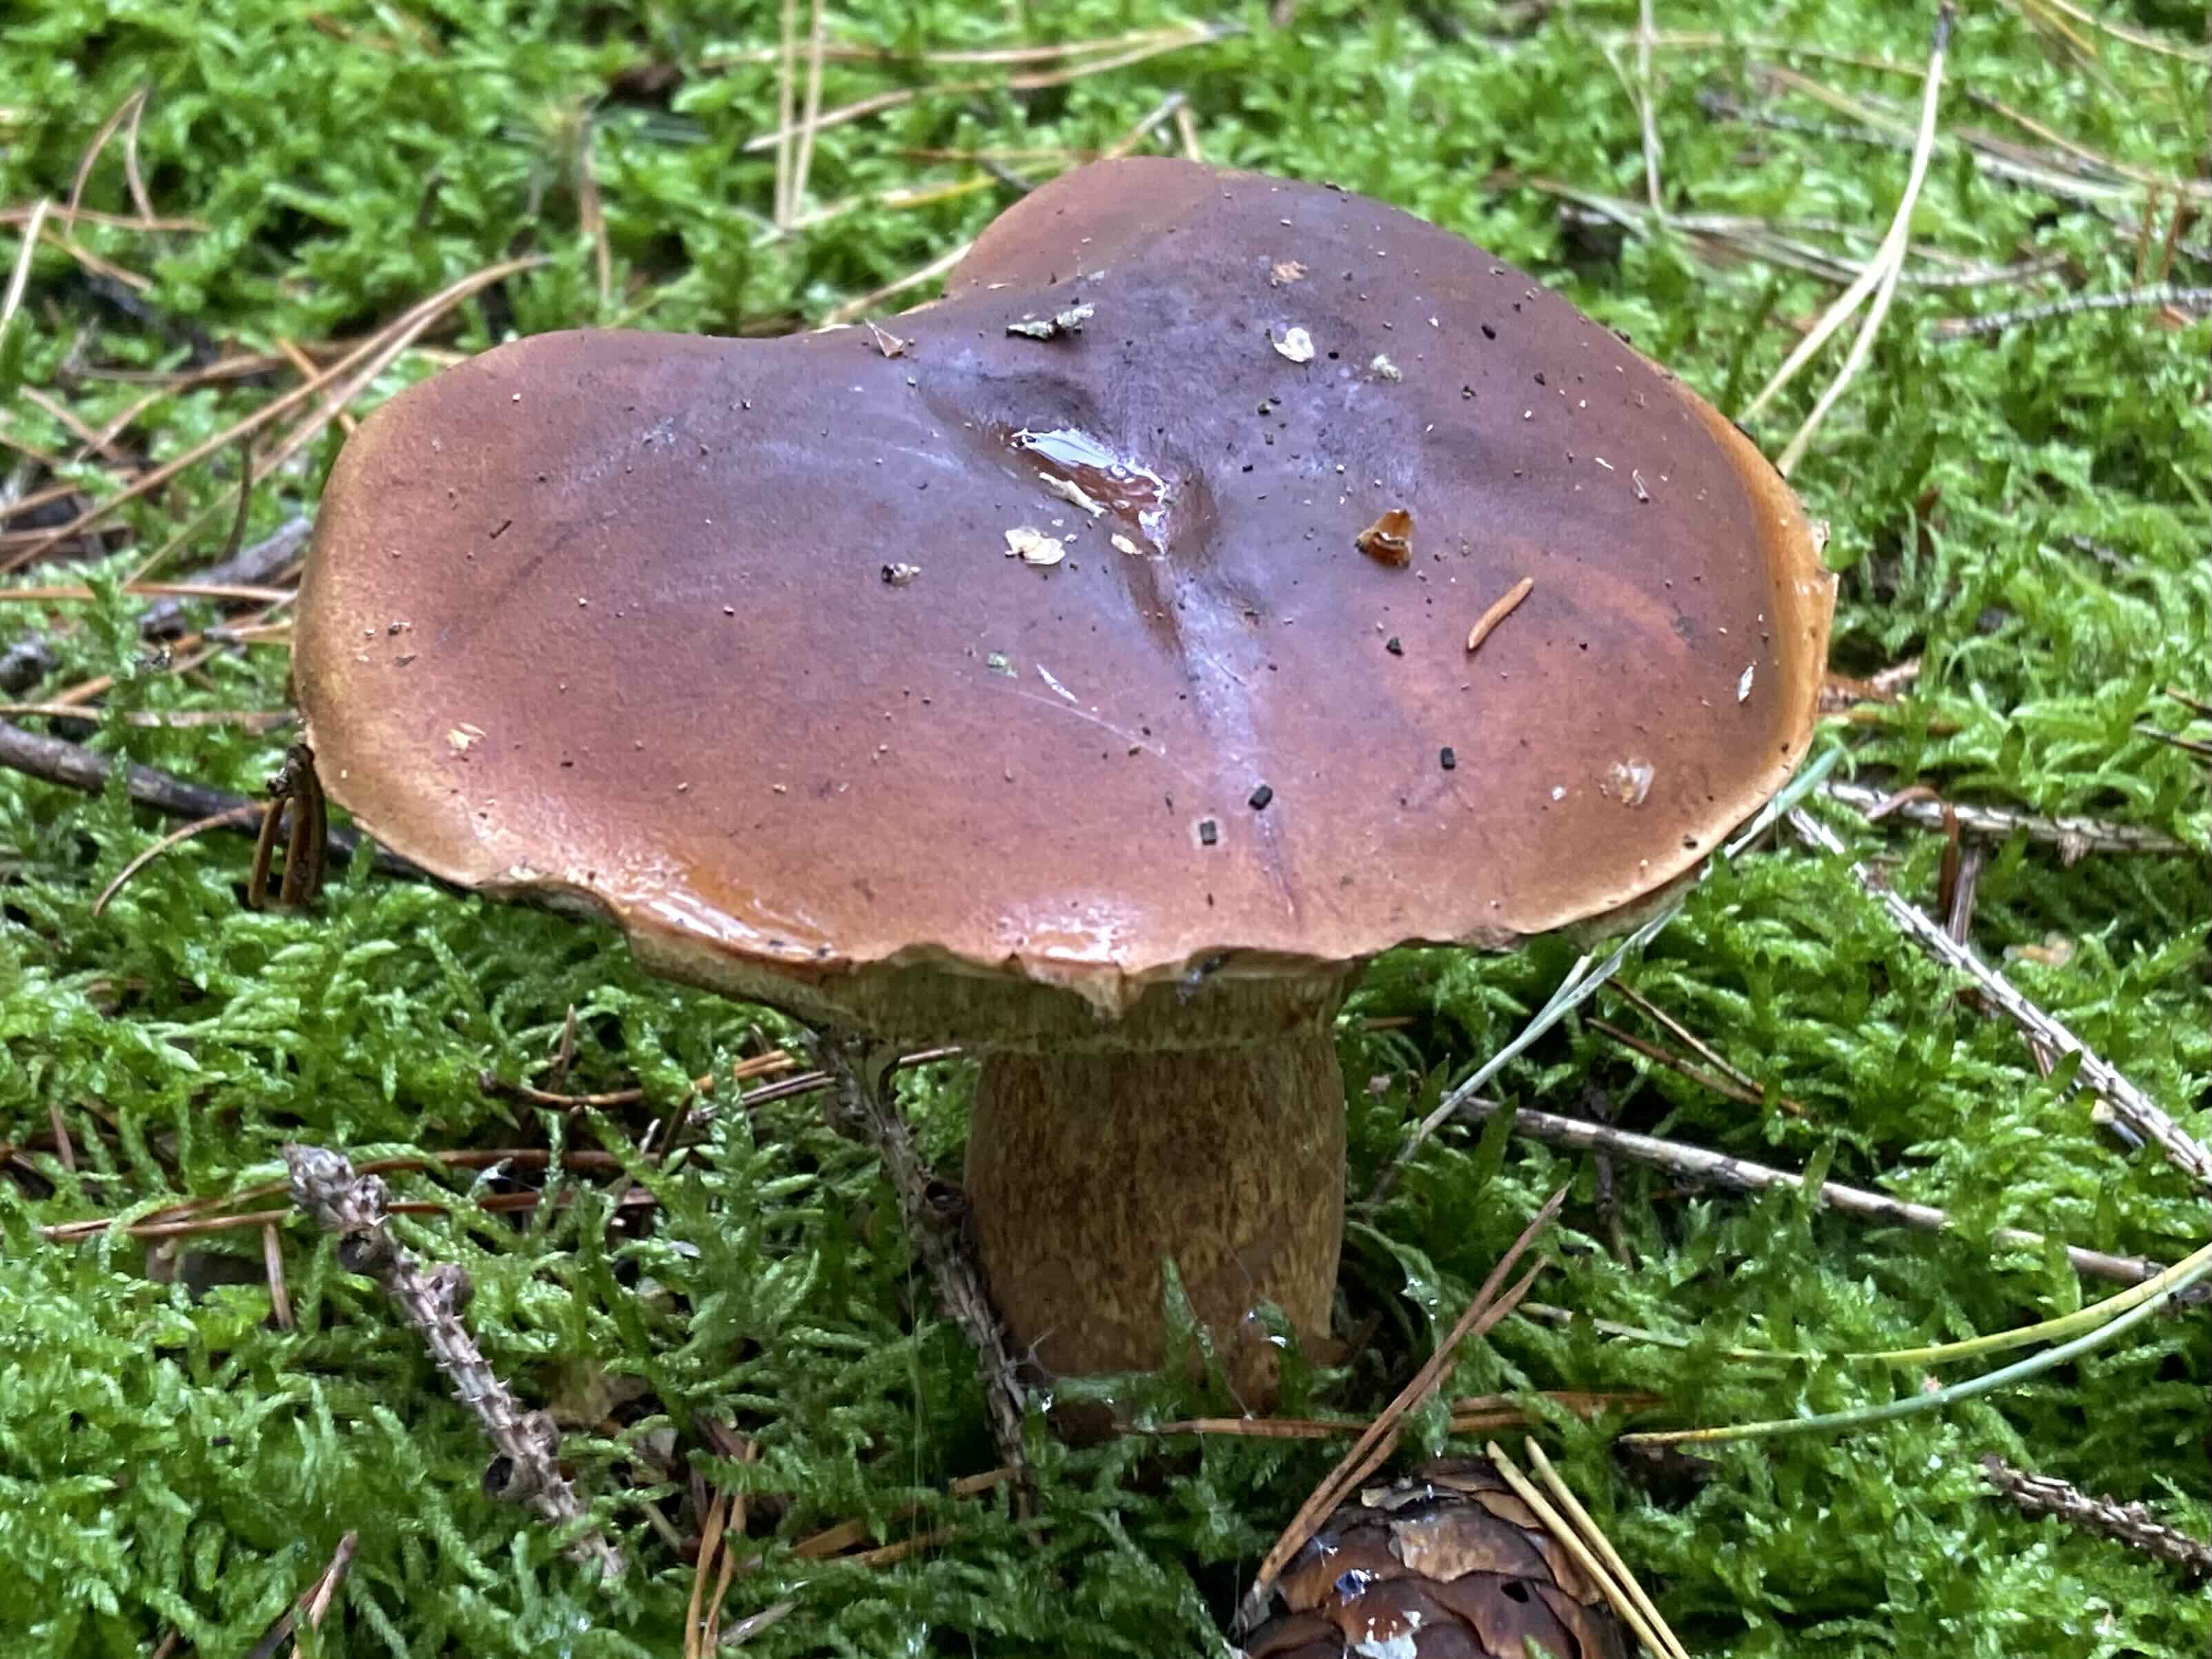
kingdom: Fungi
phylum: Basidiomycota
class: Agaricomycetes
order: Boletales
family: Boletaceae
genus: Imleria
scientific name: Imleria badia
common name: brunstokket rørhat
